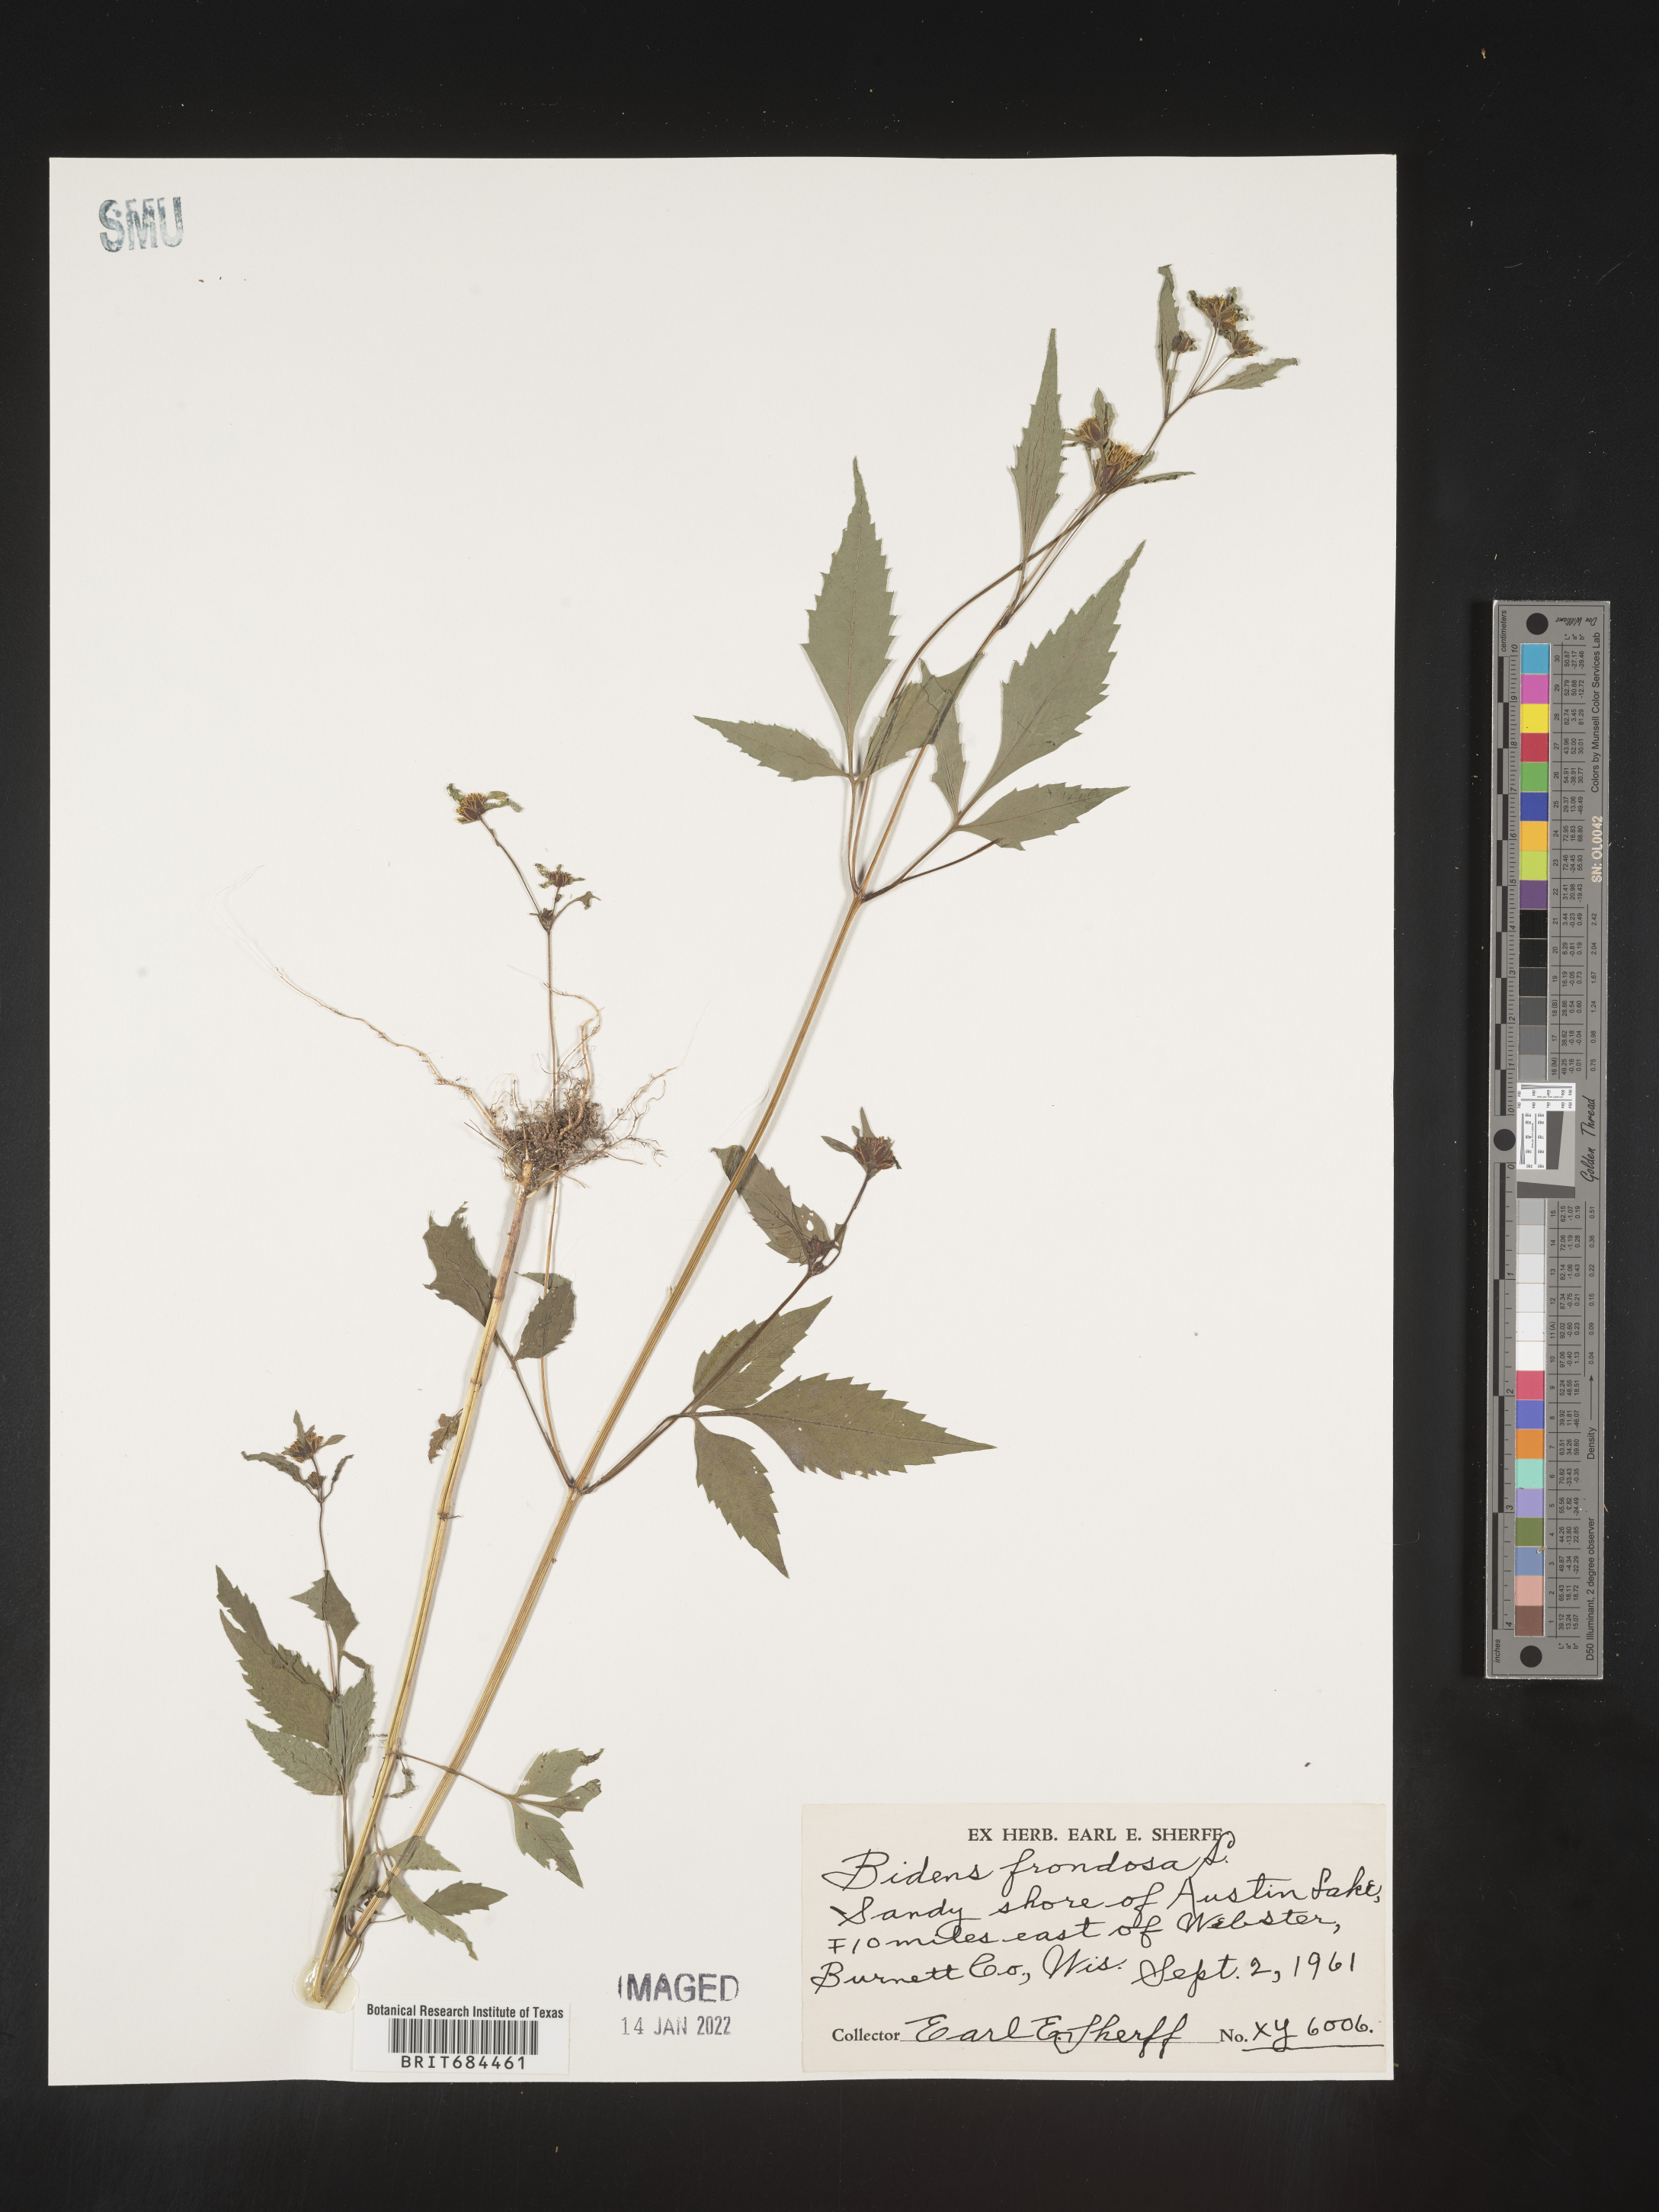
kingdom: Plantae
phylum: Tracheophyta
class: Magnoliopsida
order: Asterales
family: Asteraceae
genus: Bidens
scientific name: Bidens frondosa
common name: Beggarticks
